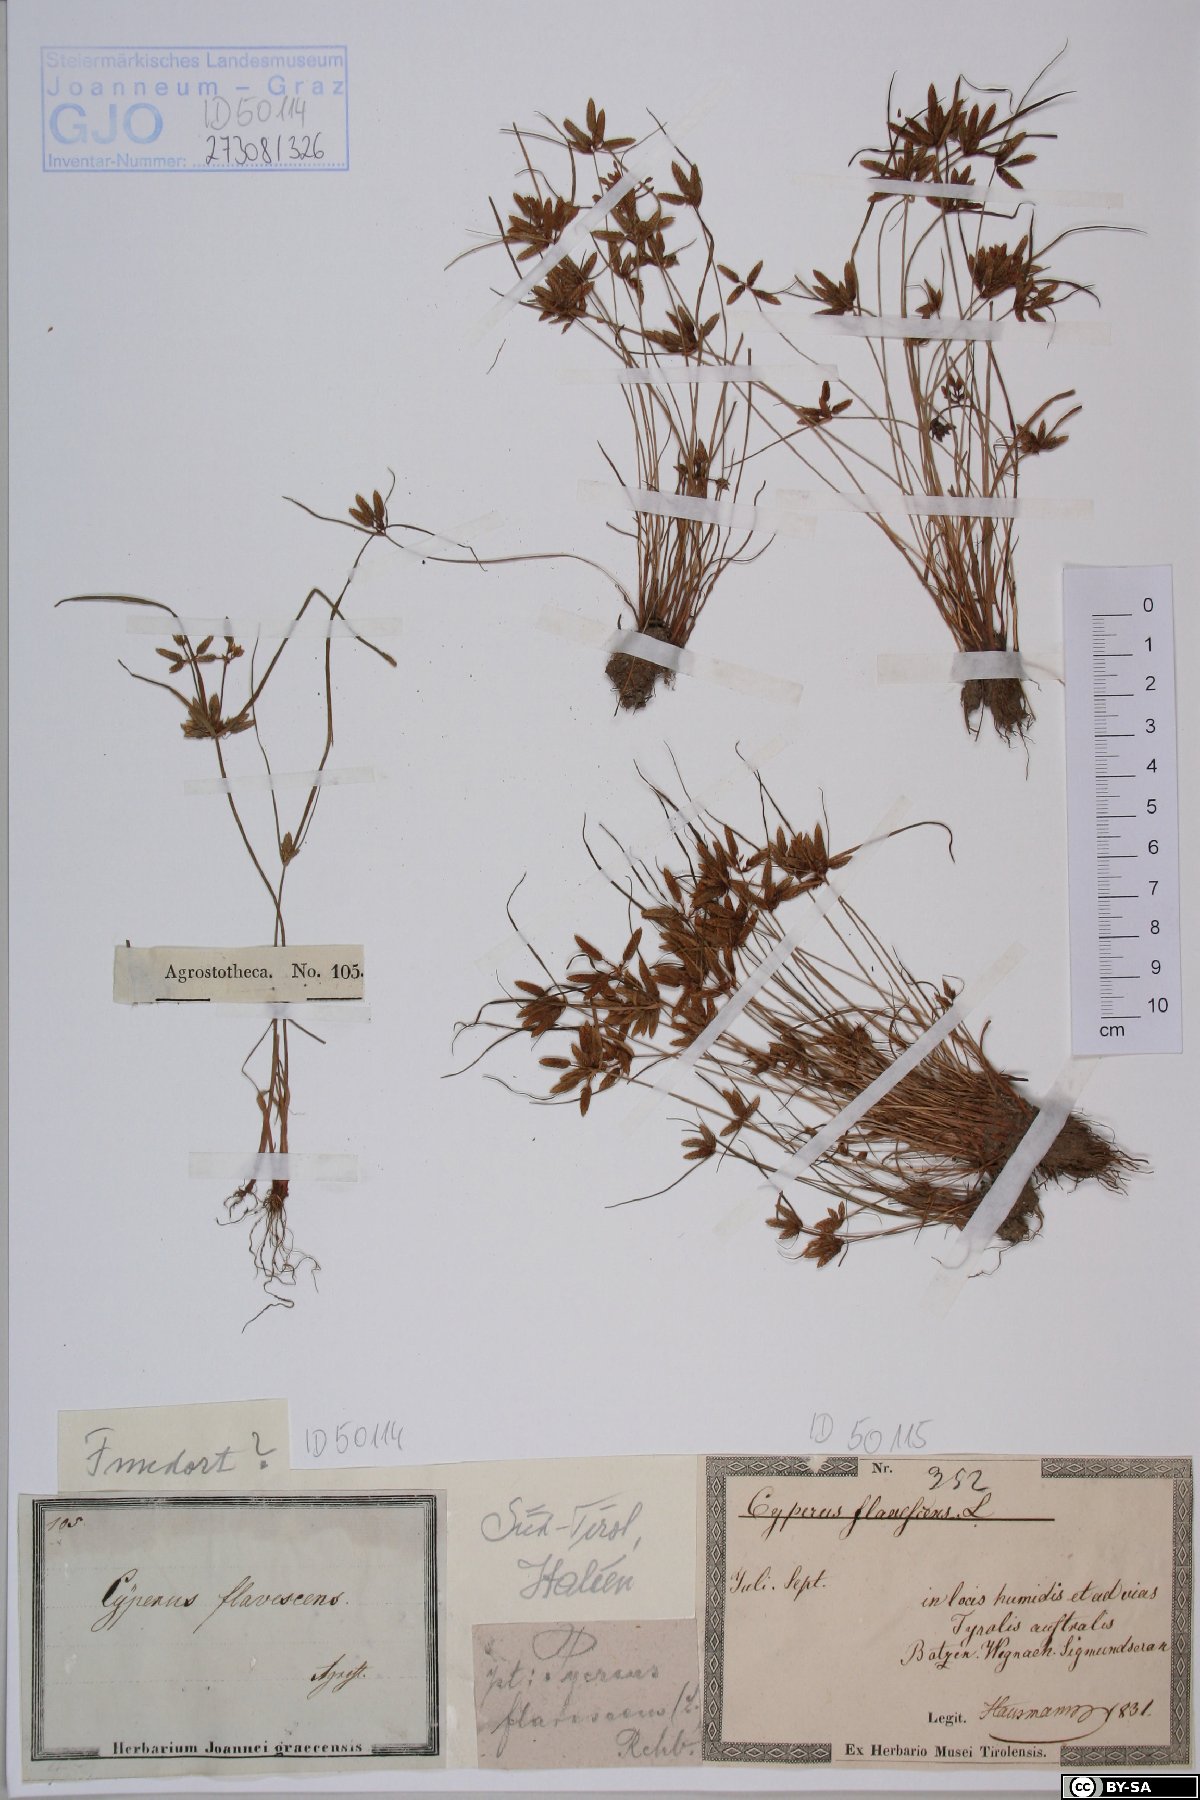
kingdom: Plantae
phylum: Tracheophyta
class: Liliopsida
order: Poales
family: Cyperaceae
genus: Cyperus
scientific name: Cyperus flavescens
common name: Yellow galingale
